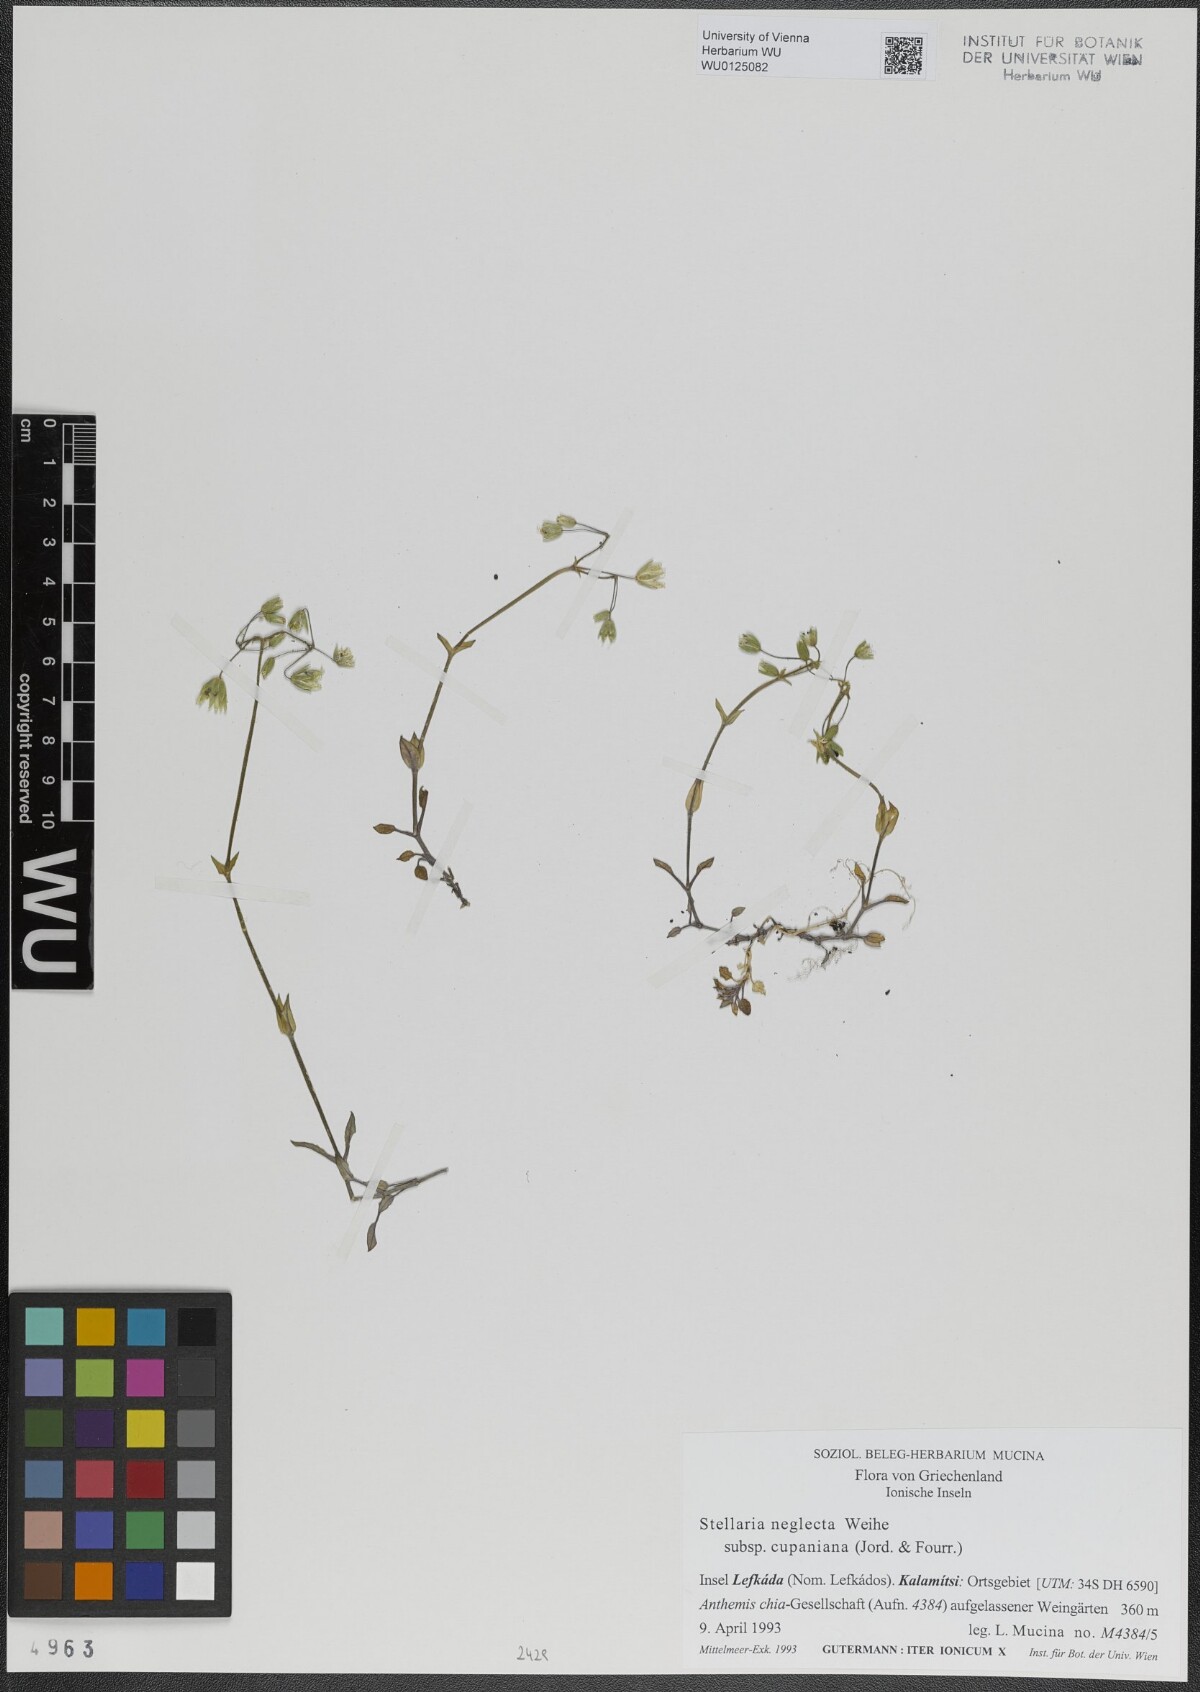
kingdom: Plantae
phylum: Tracheophyta
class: Magnoliopsida
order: Caryophyllales
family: Caryophyllaceae
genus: Stellaria
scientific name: Stellaria cupaniana
